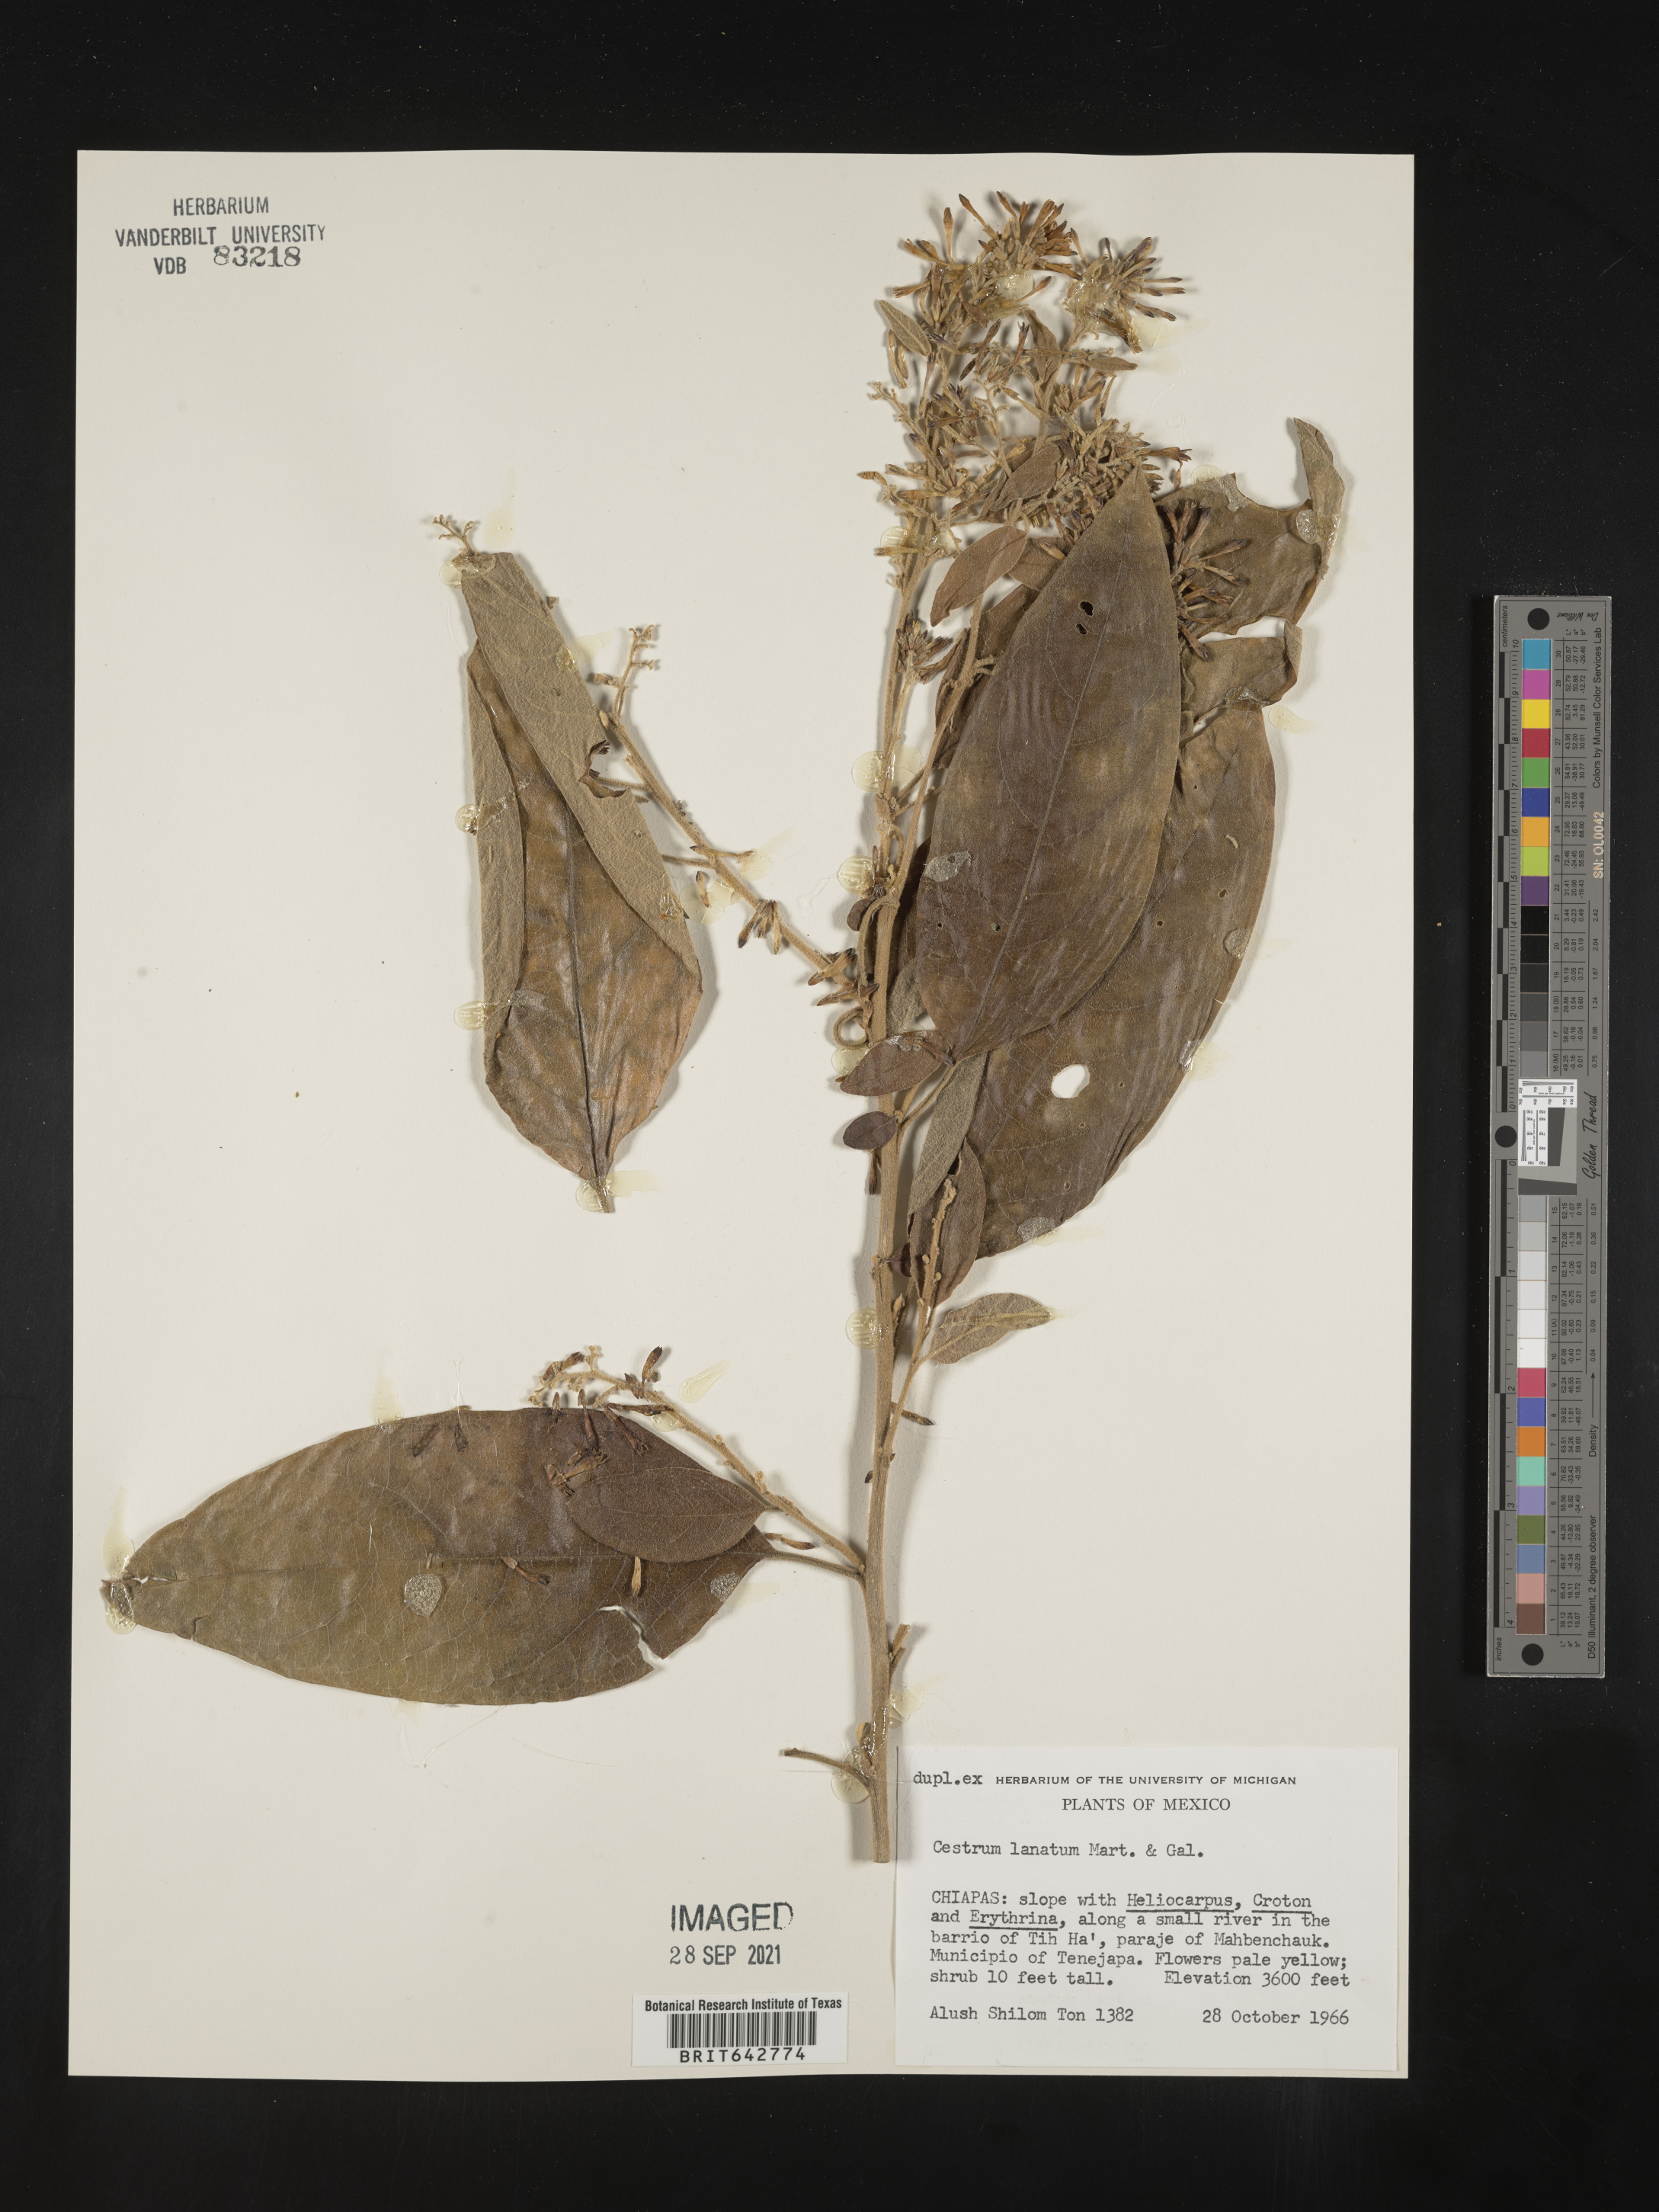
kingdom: Plantae
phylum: Tracheophyta
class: Magnoliopsida
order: Solanales
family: Solanaceae
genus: Cestrum
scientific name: Cestrum
